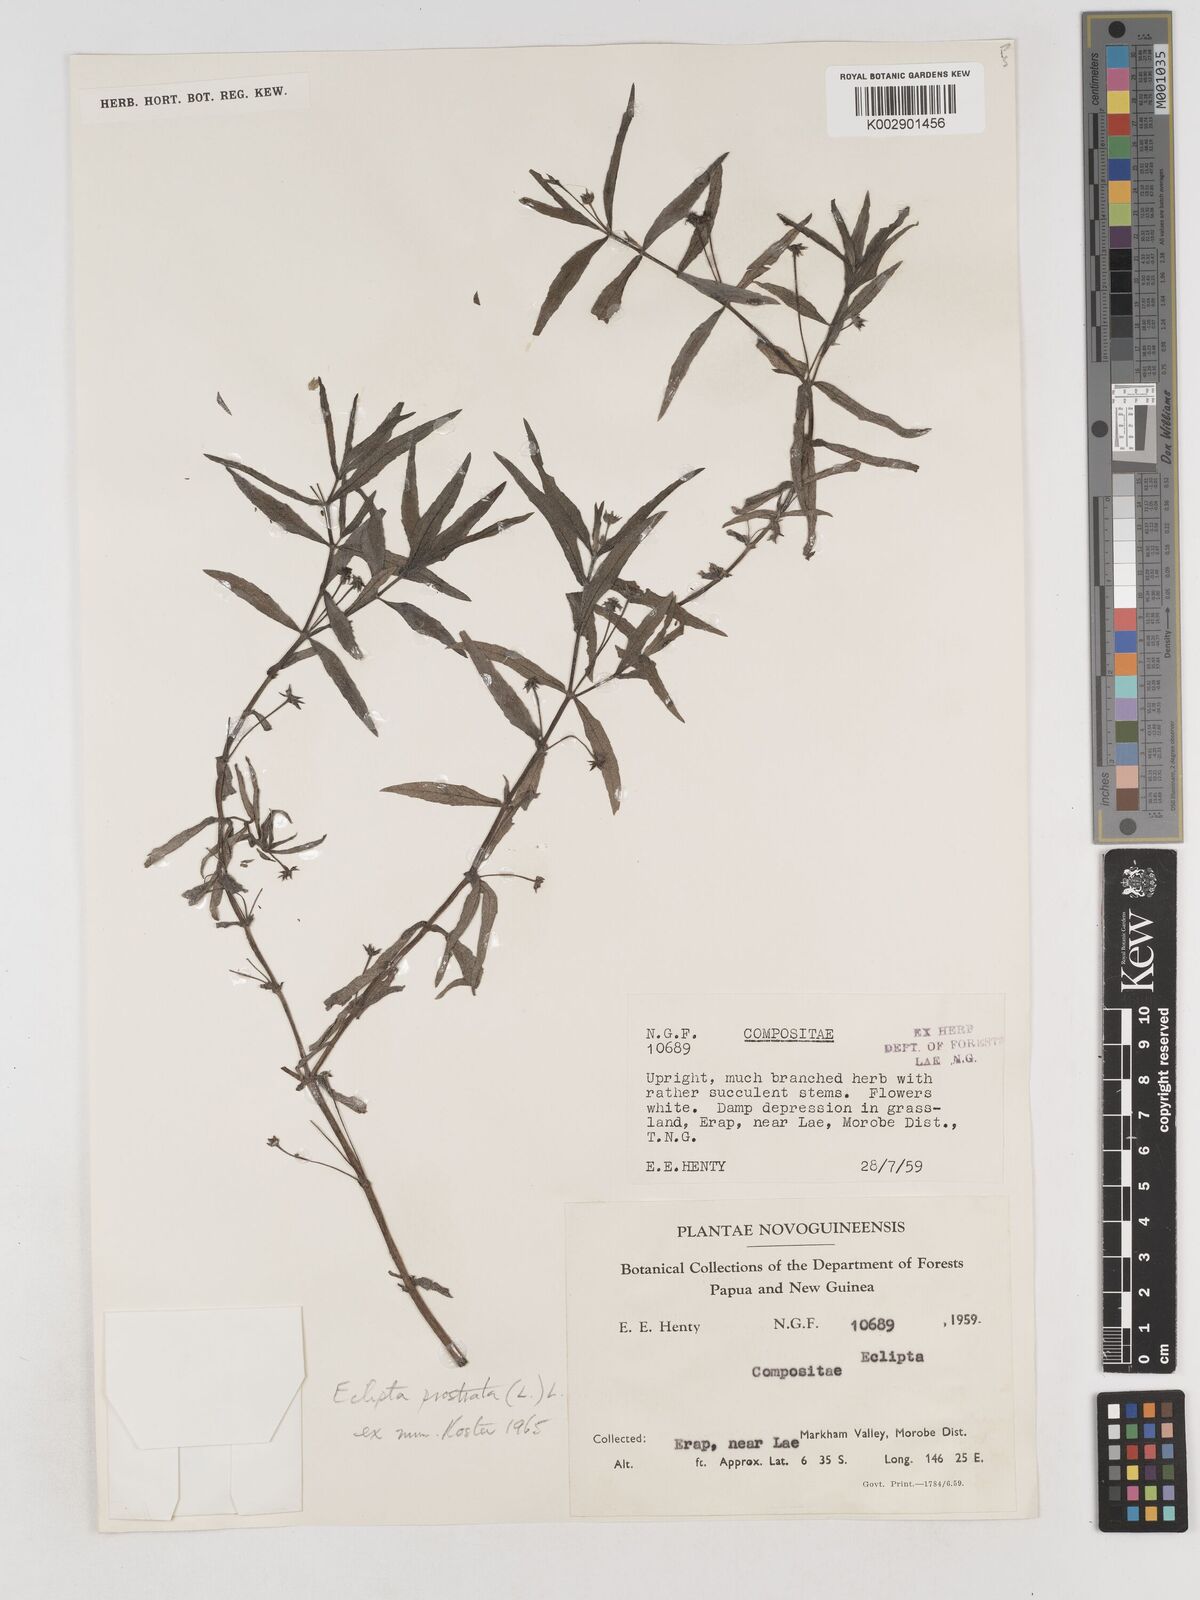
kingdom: Plantae
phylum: Tracheophyta
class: Magnoliopsida
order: Asterales
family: Asteraceae
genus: Eclipta
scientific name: Eclipta
